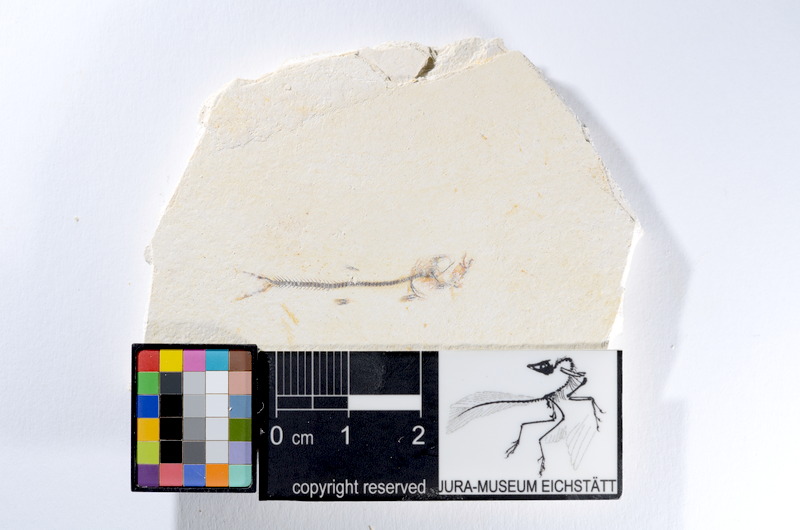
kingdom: Animalia
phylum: Chordata
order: Salmoniformes
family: Orthogonikleithridae
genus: Orthogonikleithrus
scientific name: Orthogonikleithrus hoelli
